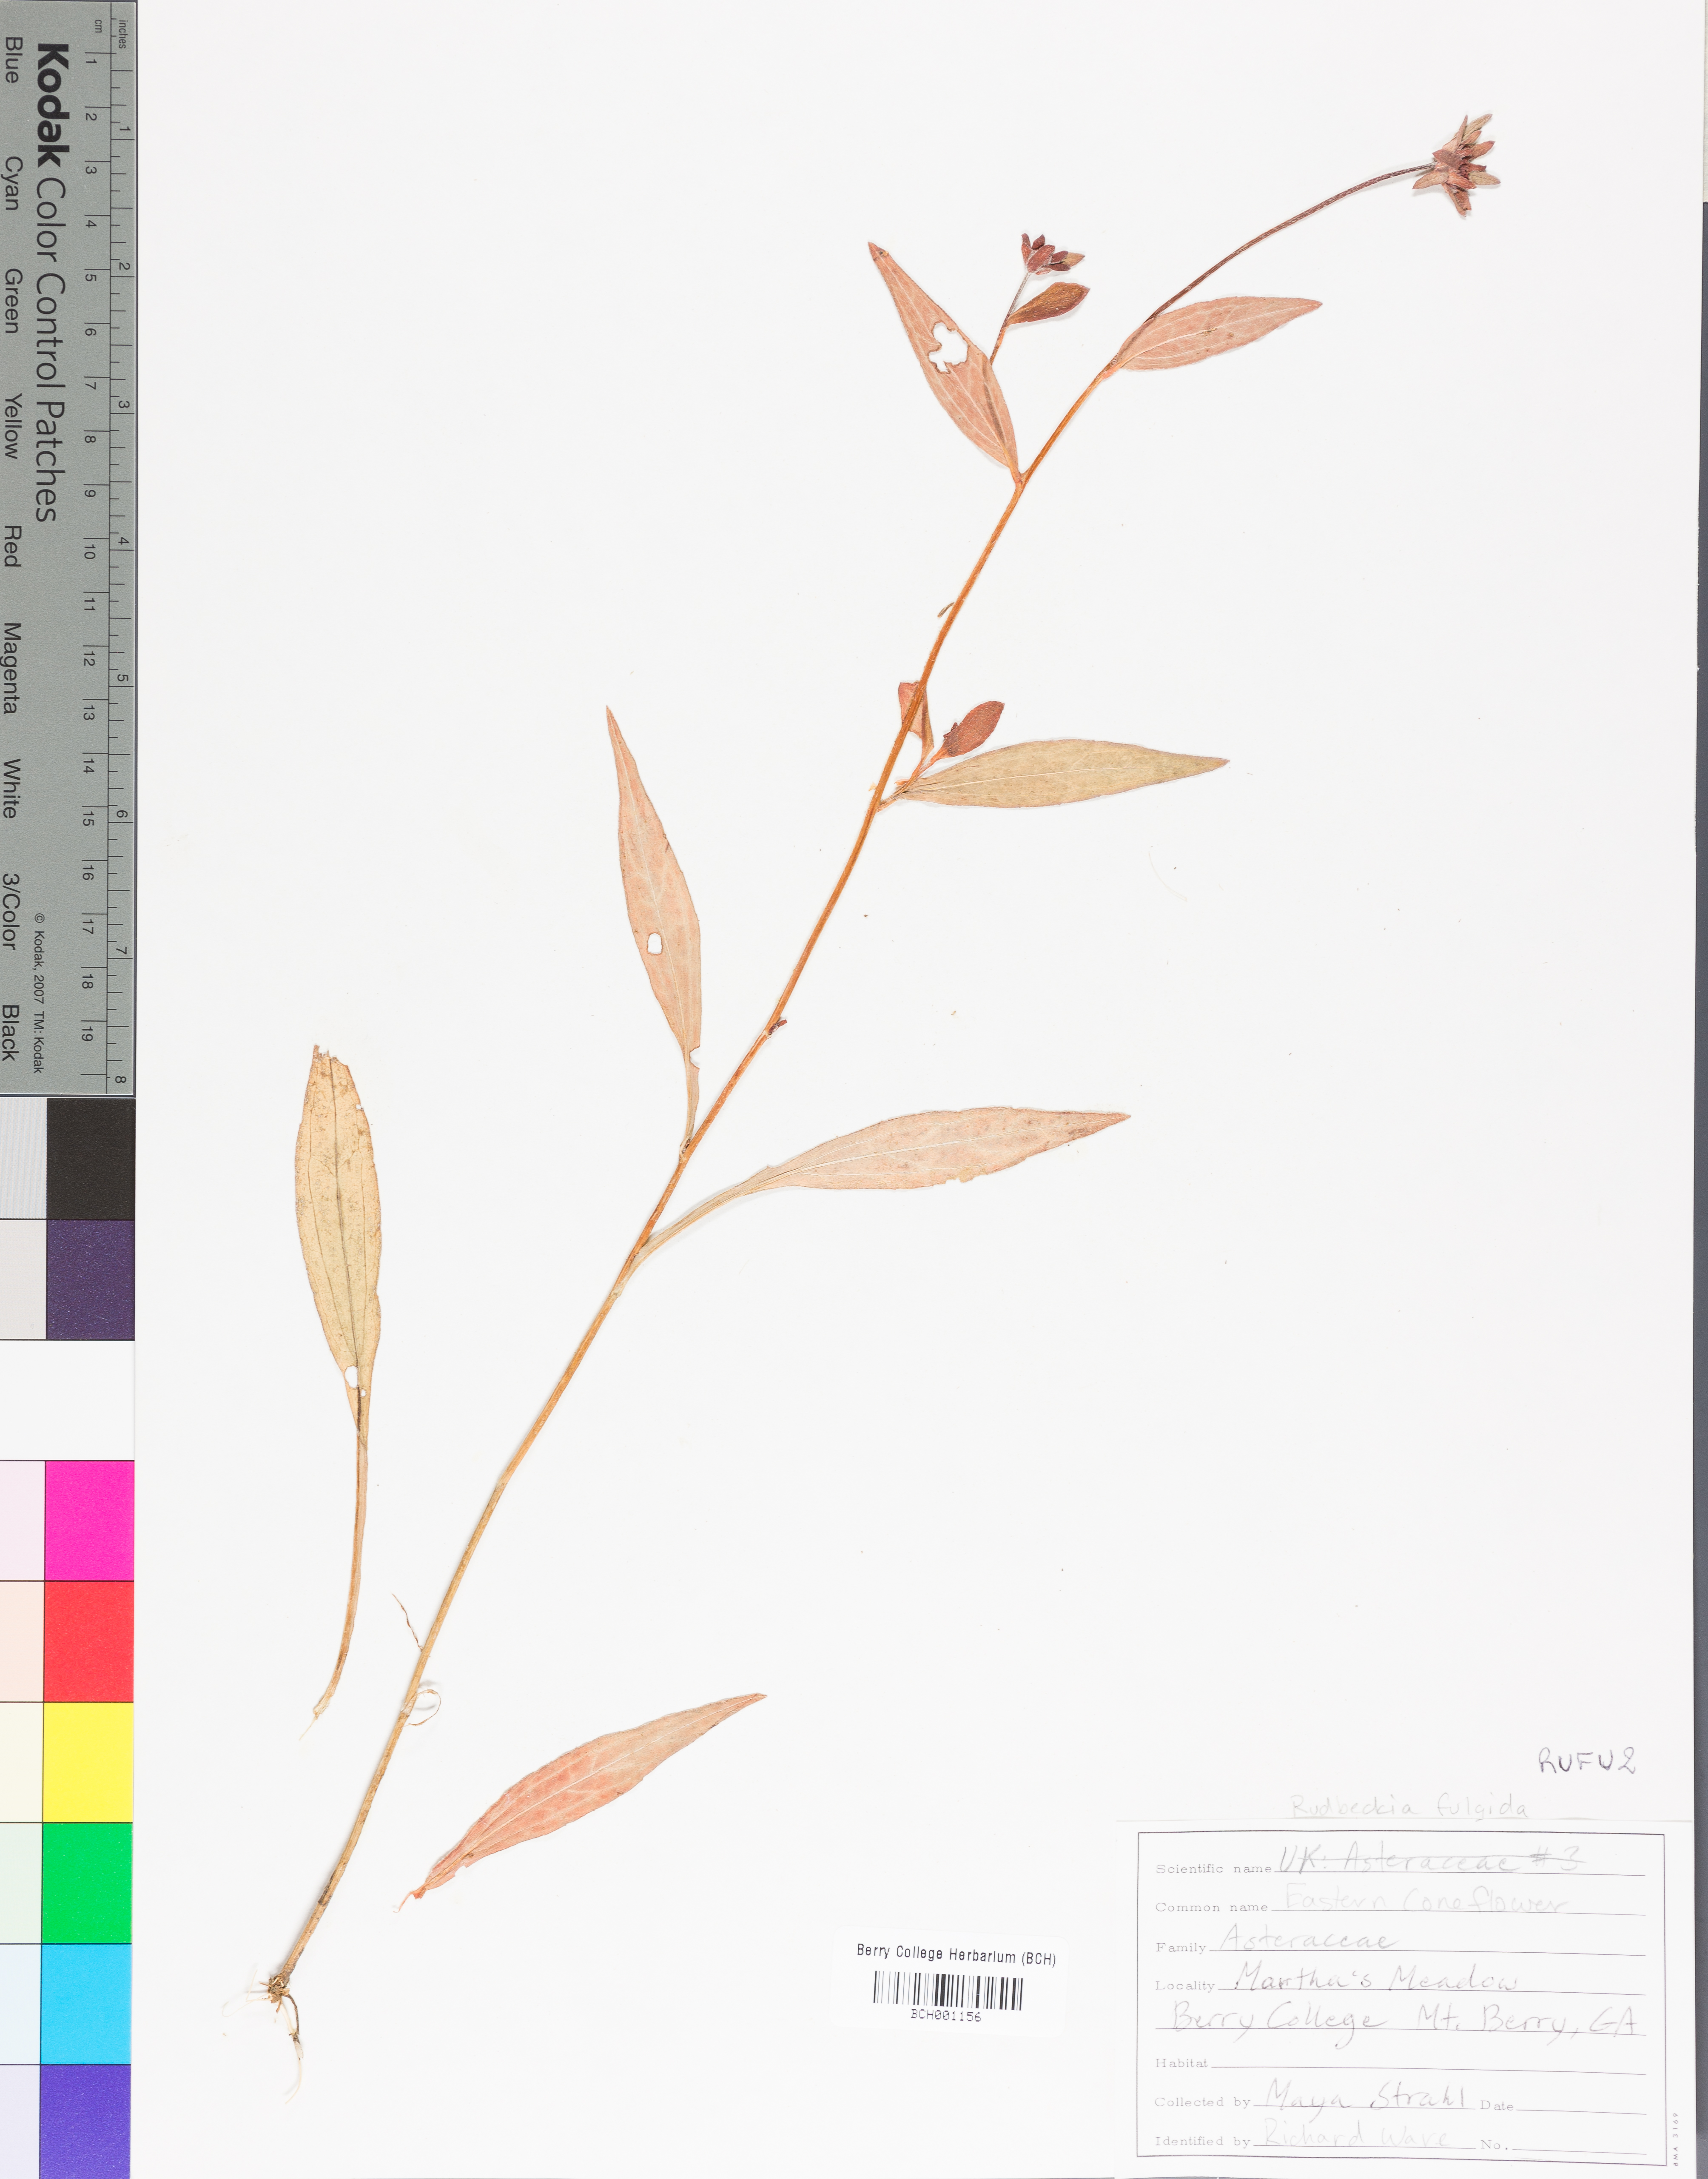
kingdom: Plantae
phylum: Tracheophyta
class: Magnoliopsida
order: Asterales
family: Asteraceae
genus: Rudbeckia
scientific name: Rudbeckia fulgida
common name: Perennial coneflower
